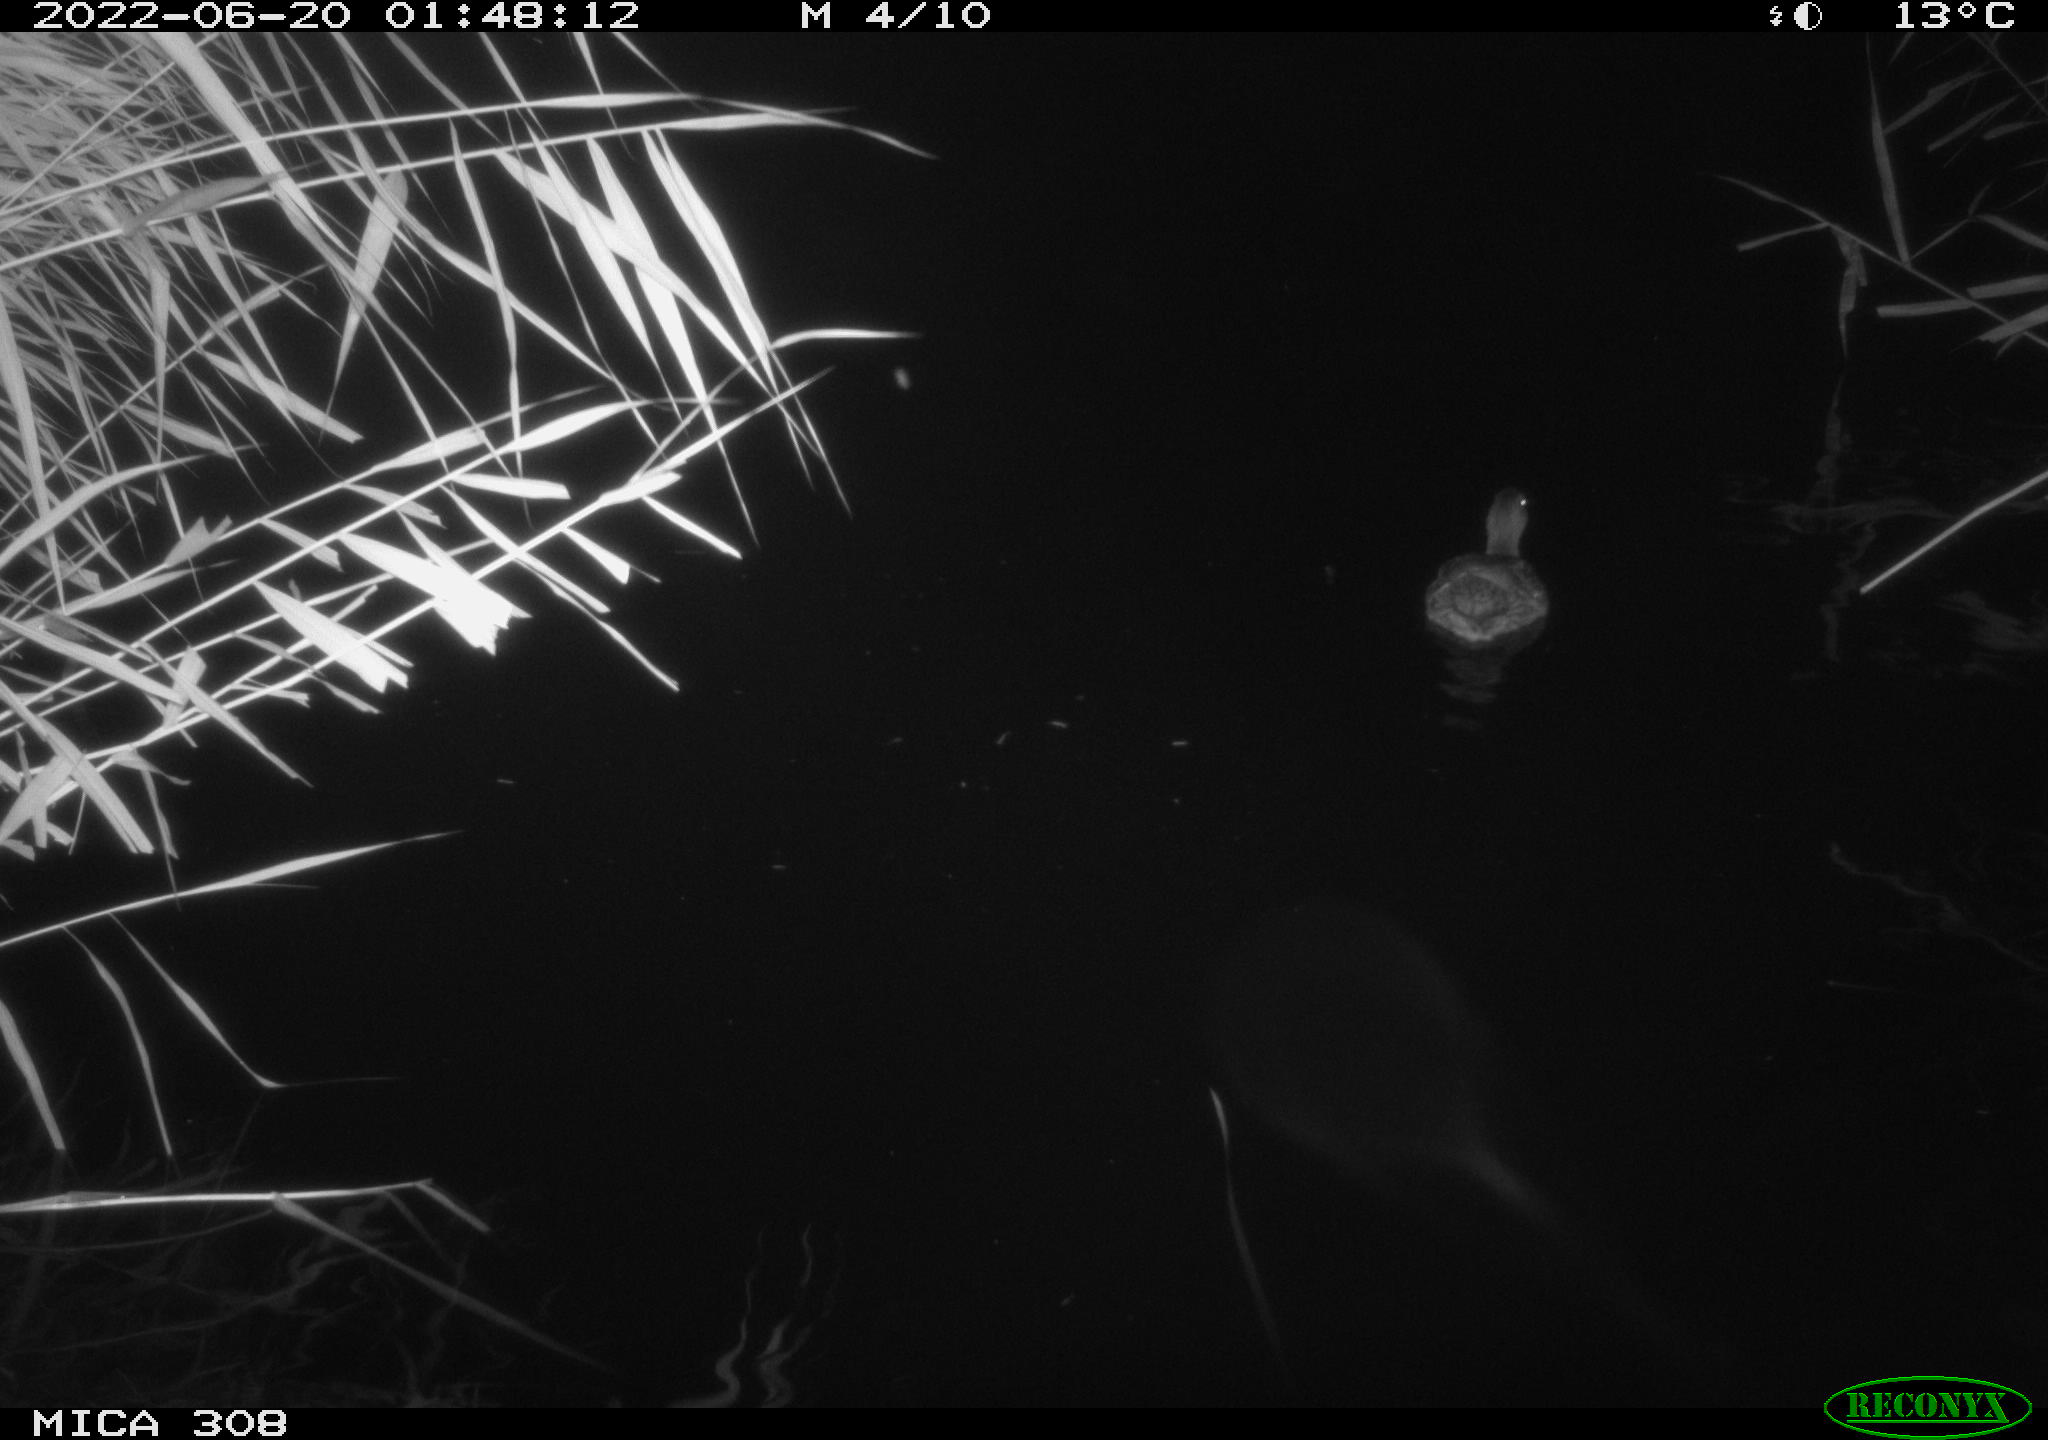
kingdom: Animalia
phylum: Chordata
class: Aves
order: Anseriformes
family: Anatidae
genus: Anas
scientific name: Anas platyrhynchos
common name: Mallard
